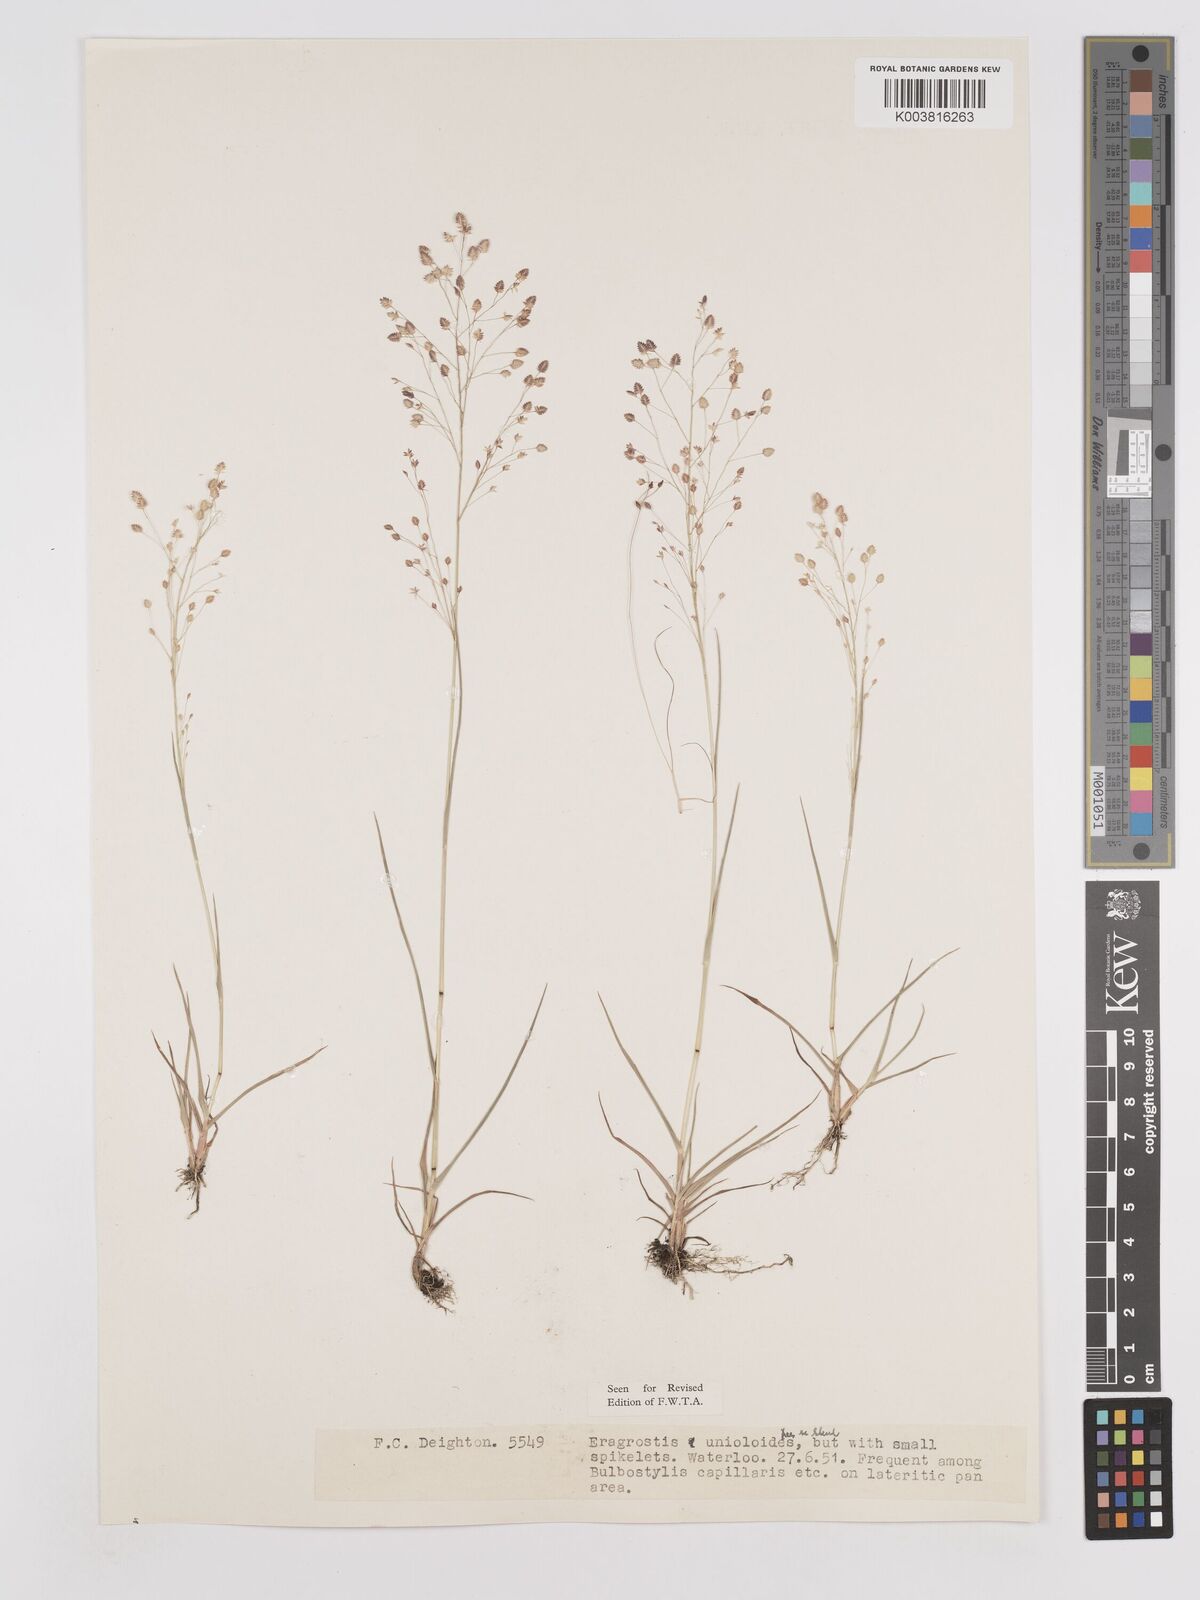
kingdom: Plantae
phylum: Tracheophyta
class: Liliopsida
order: Poales
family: Poaceae
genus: Eragrostis
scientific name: Eragrostis unioloides
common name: Chinese lovegrass
